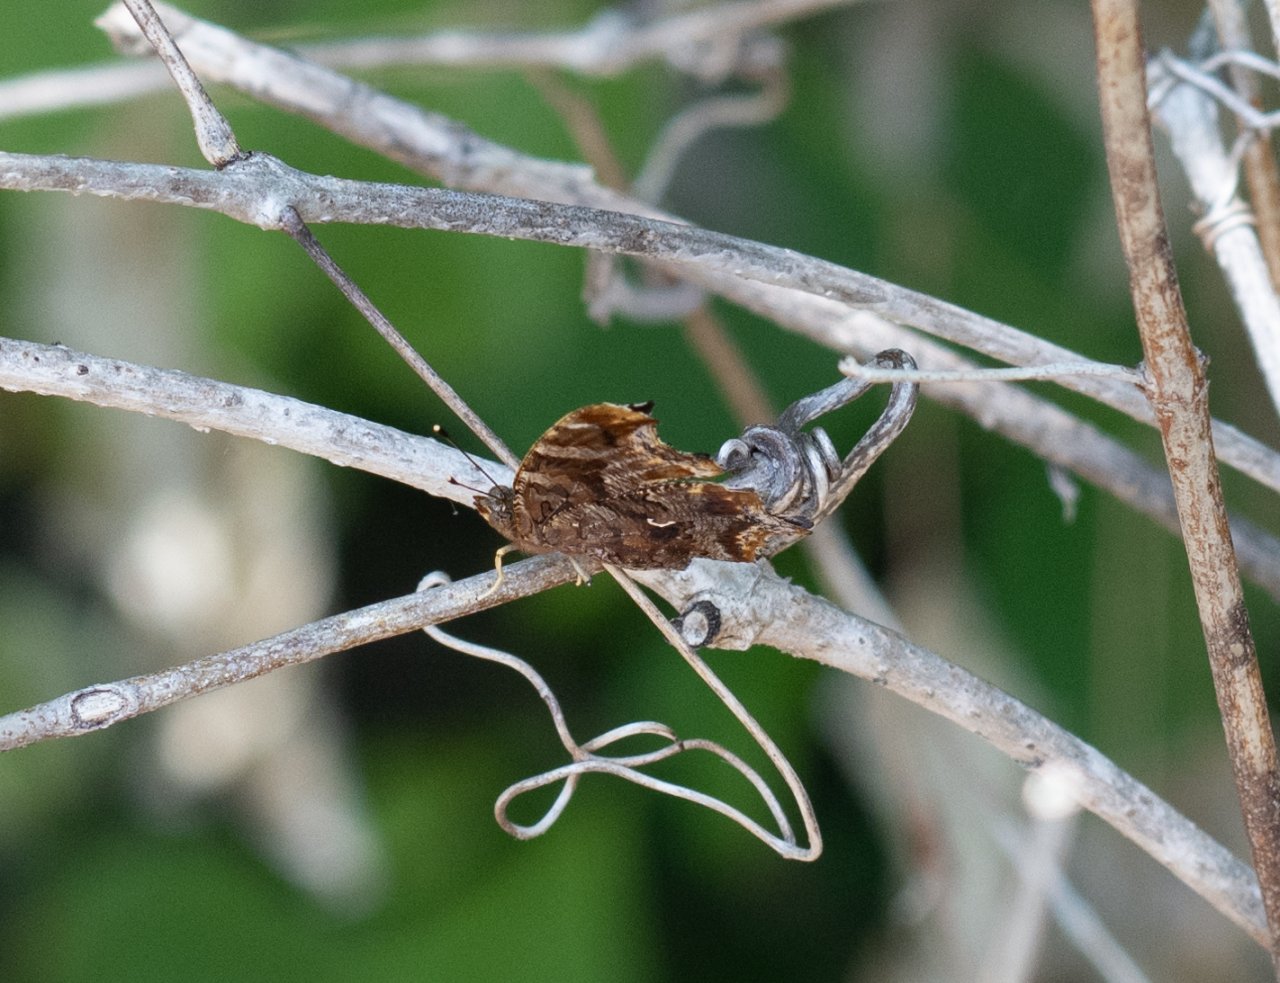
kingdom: Animalia
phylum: Arthropoda
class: Insecta
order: Lepidoptera
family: Nymphalidae
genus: Polygonia
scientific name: Polygonia comma
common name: Eastern Comma
